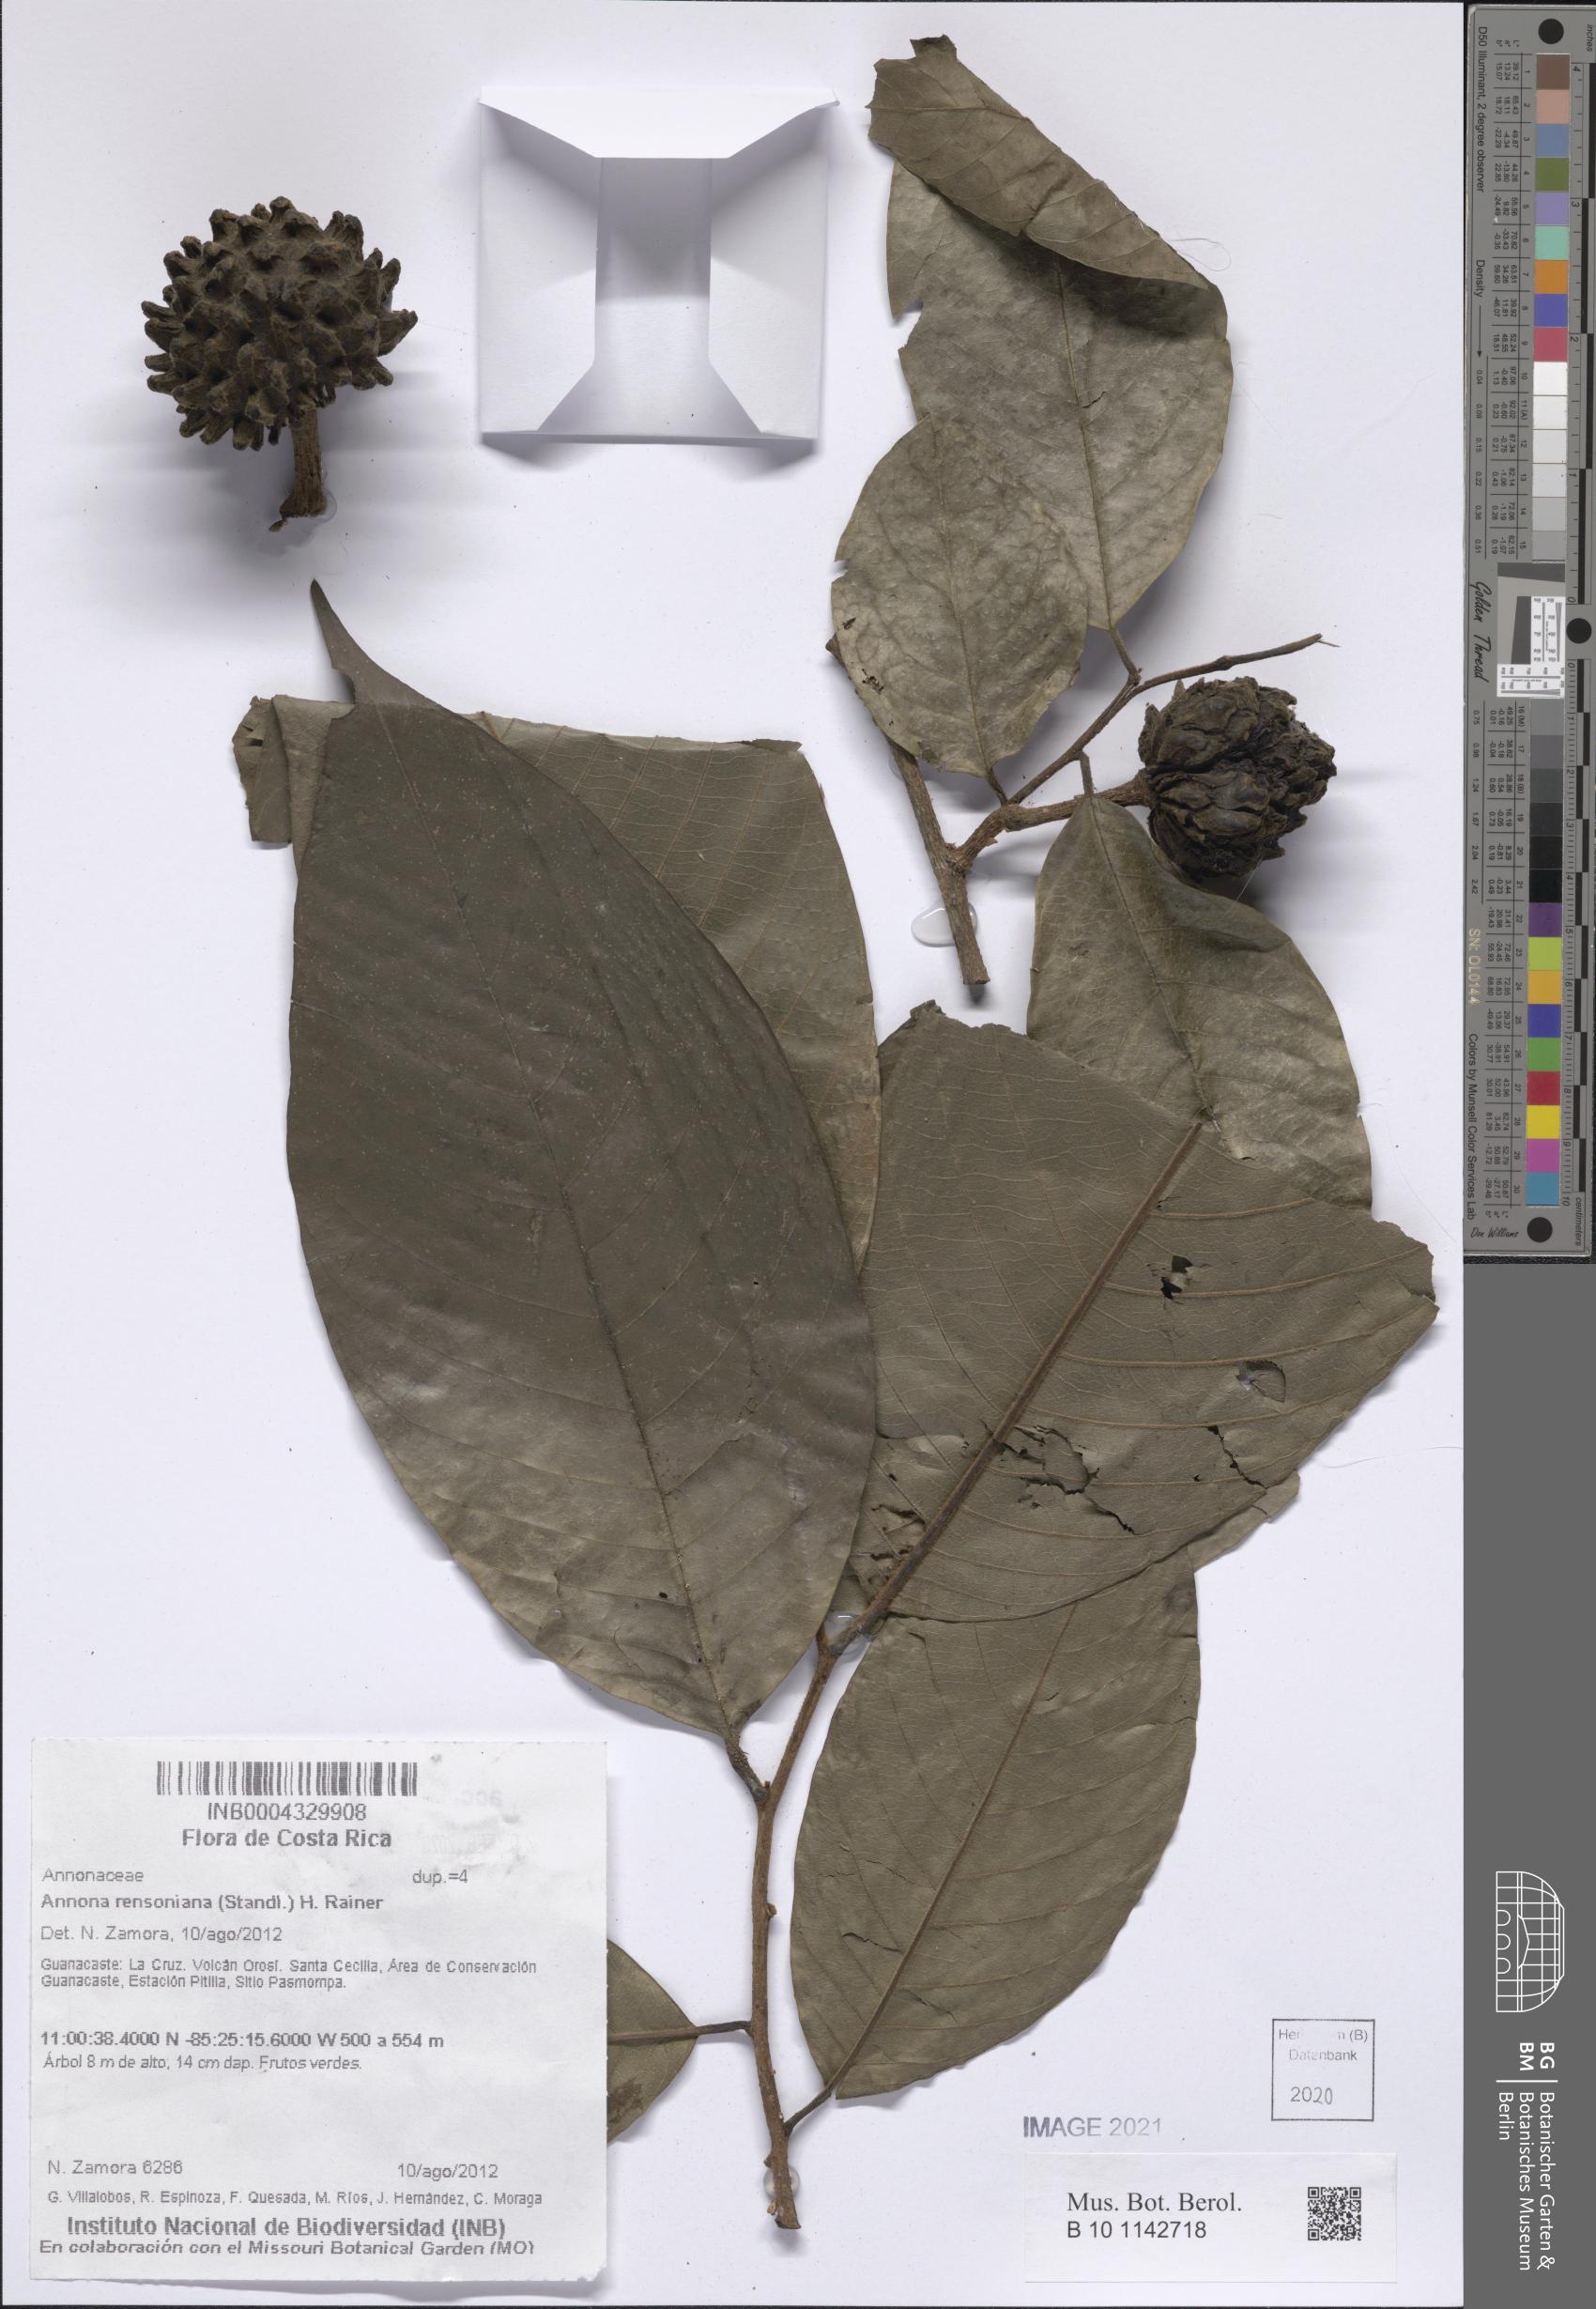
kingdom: Plantae
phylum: Tracheophyta
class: Magnoliopsida
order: Magnoliales
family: Annonaceae
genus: Annona
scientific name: Annona rensoniana
